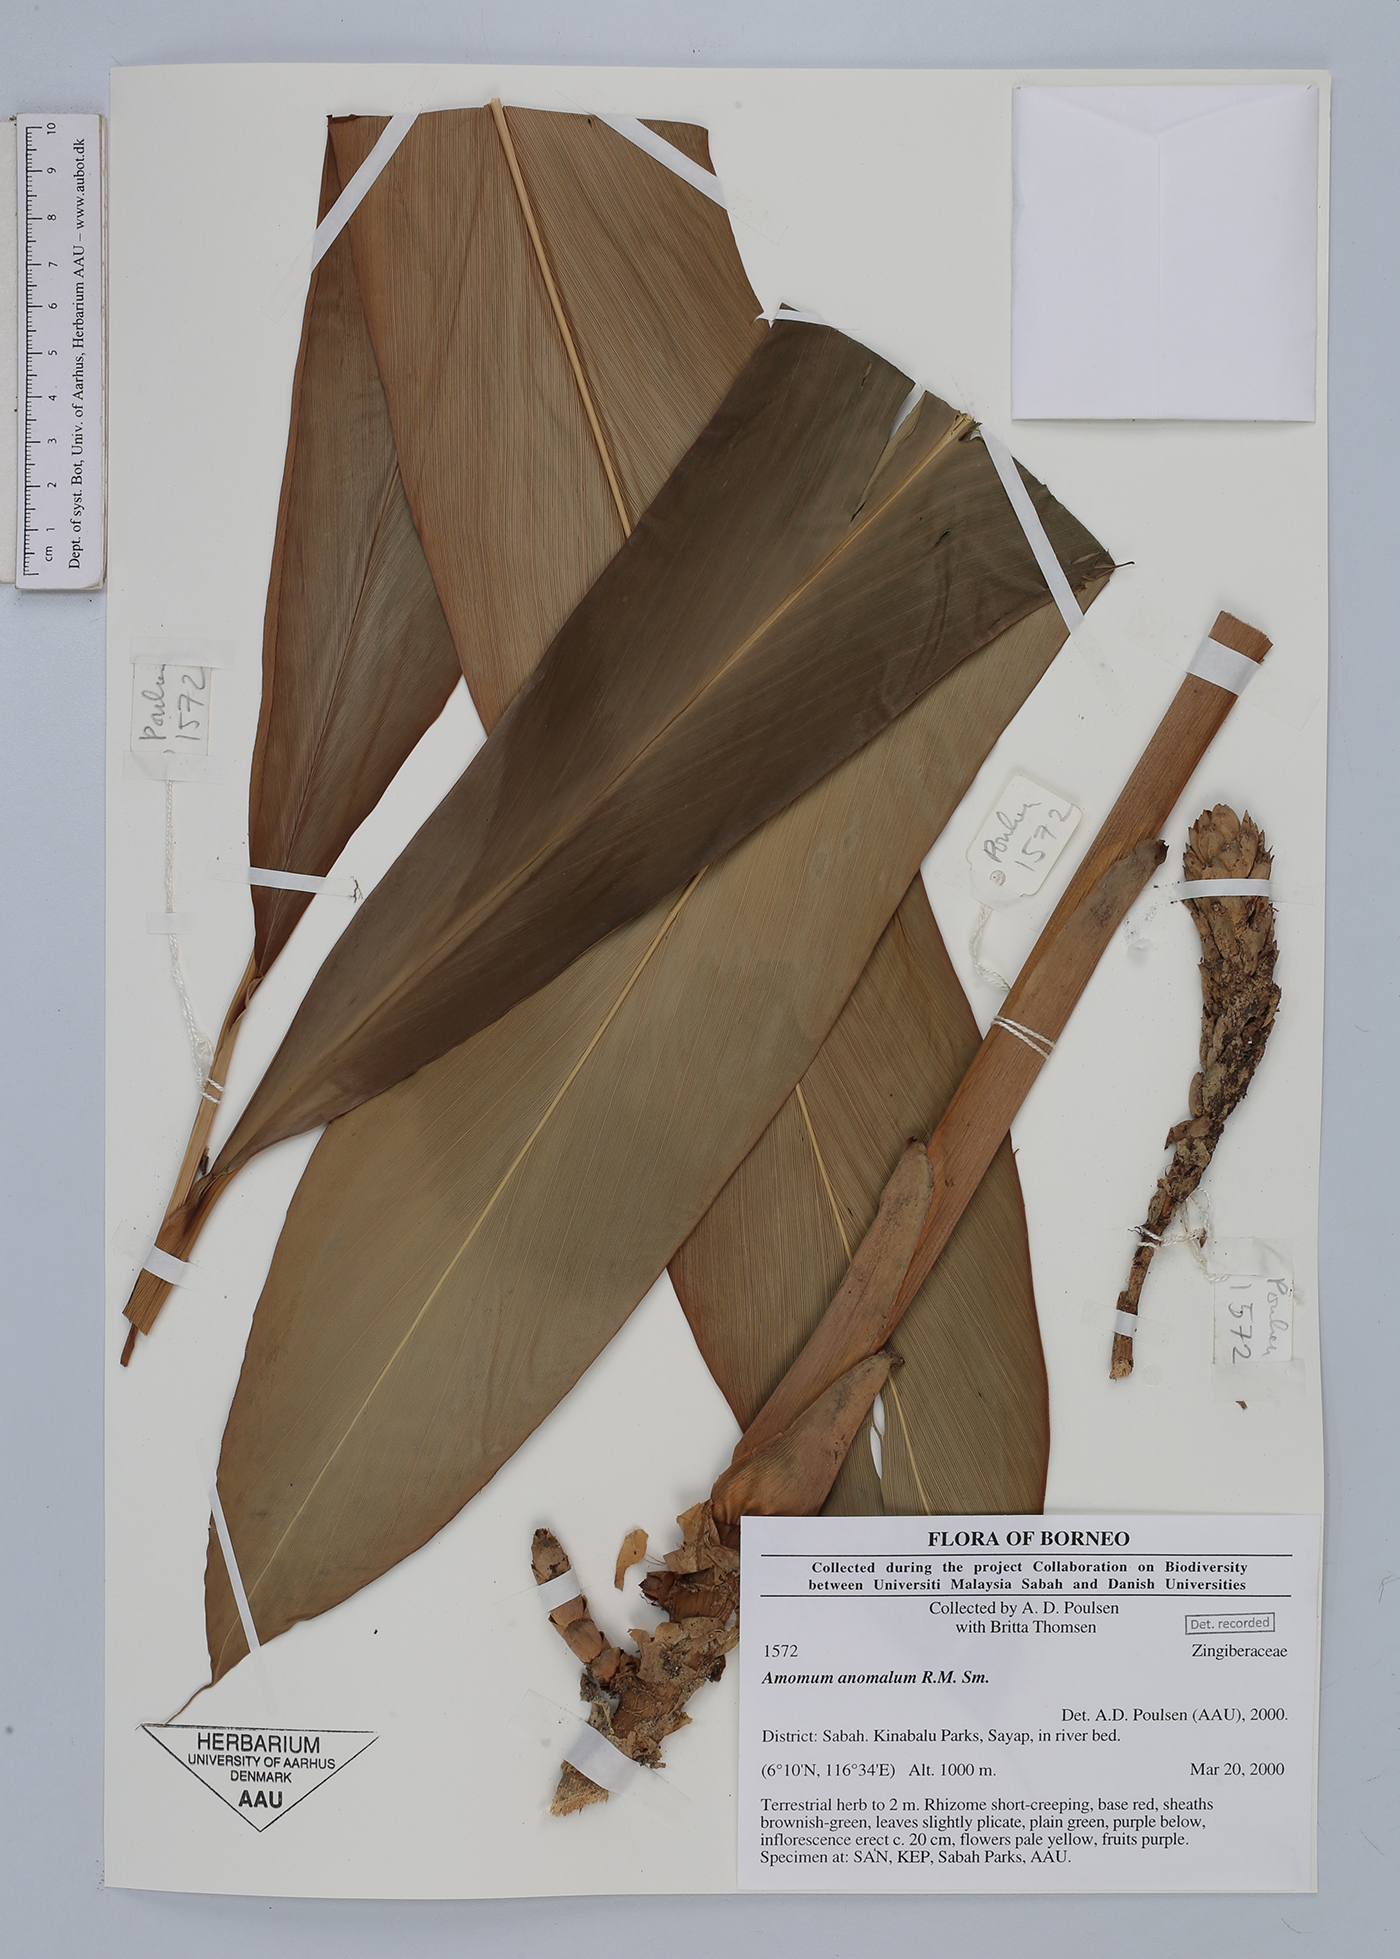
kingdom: Plantae
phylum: Tracheophyta
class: Liliopsida
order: Zingiberales
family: Zingiberaceae
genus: Sulettaria
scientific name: Sulettaria anomala
